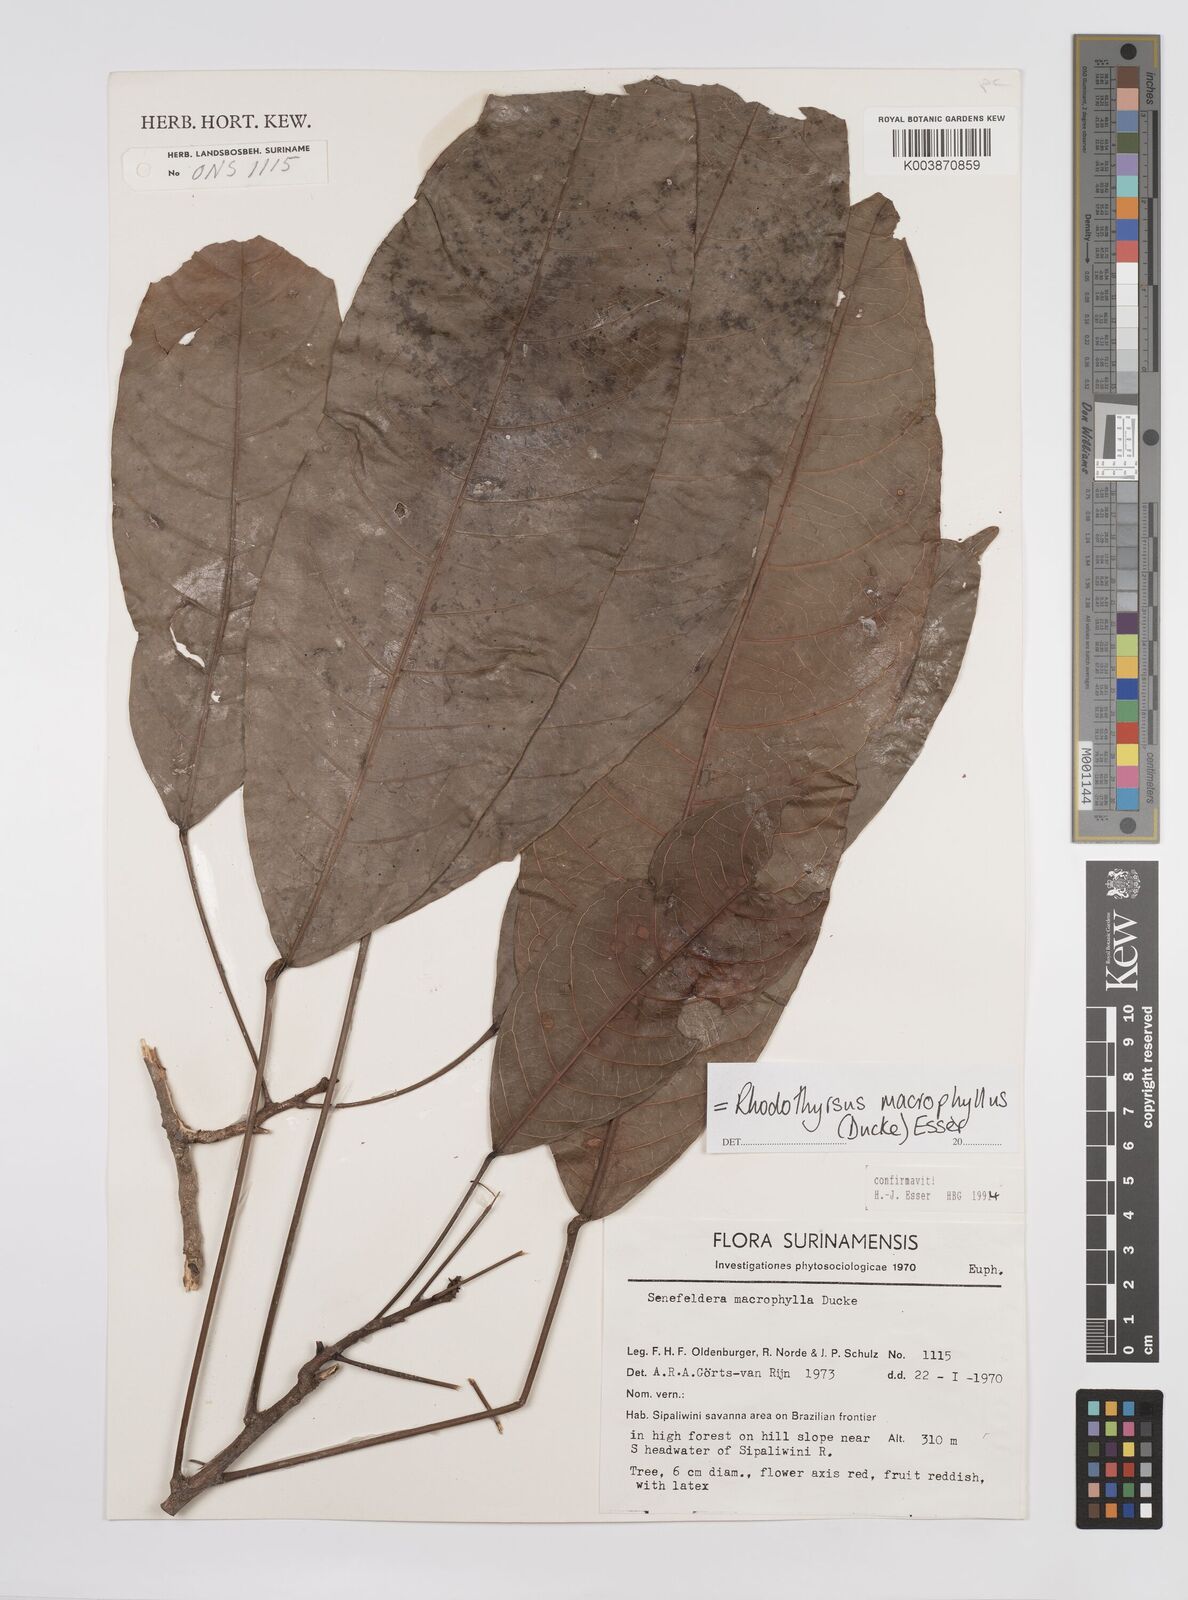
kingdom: Plantae
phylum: Tracheophyta
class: Magnoliopsida
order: Malpighiales
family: Euphorbiaceae
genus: Rhodothyrsus
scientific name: Rhodothyrsus macrophyllus
